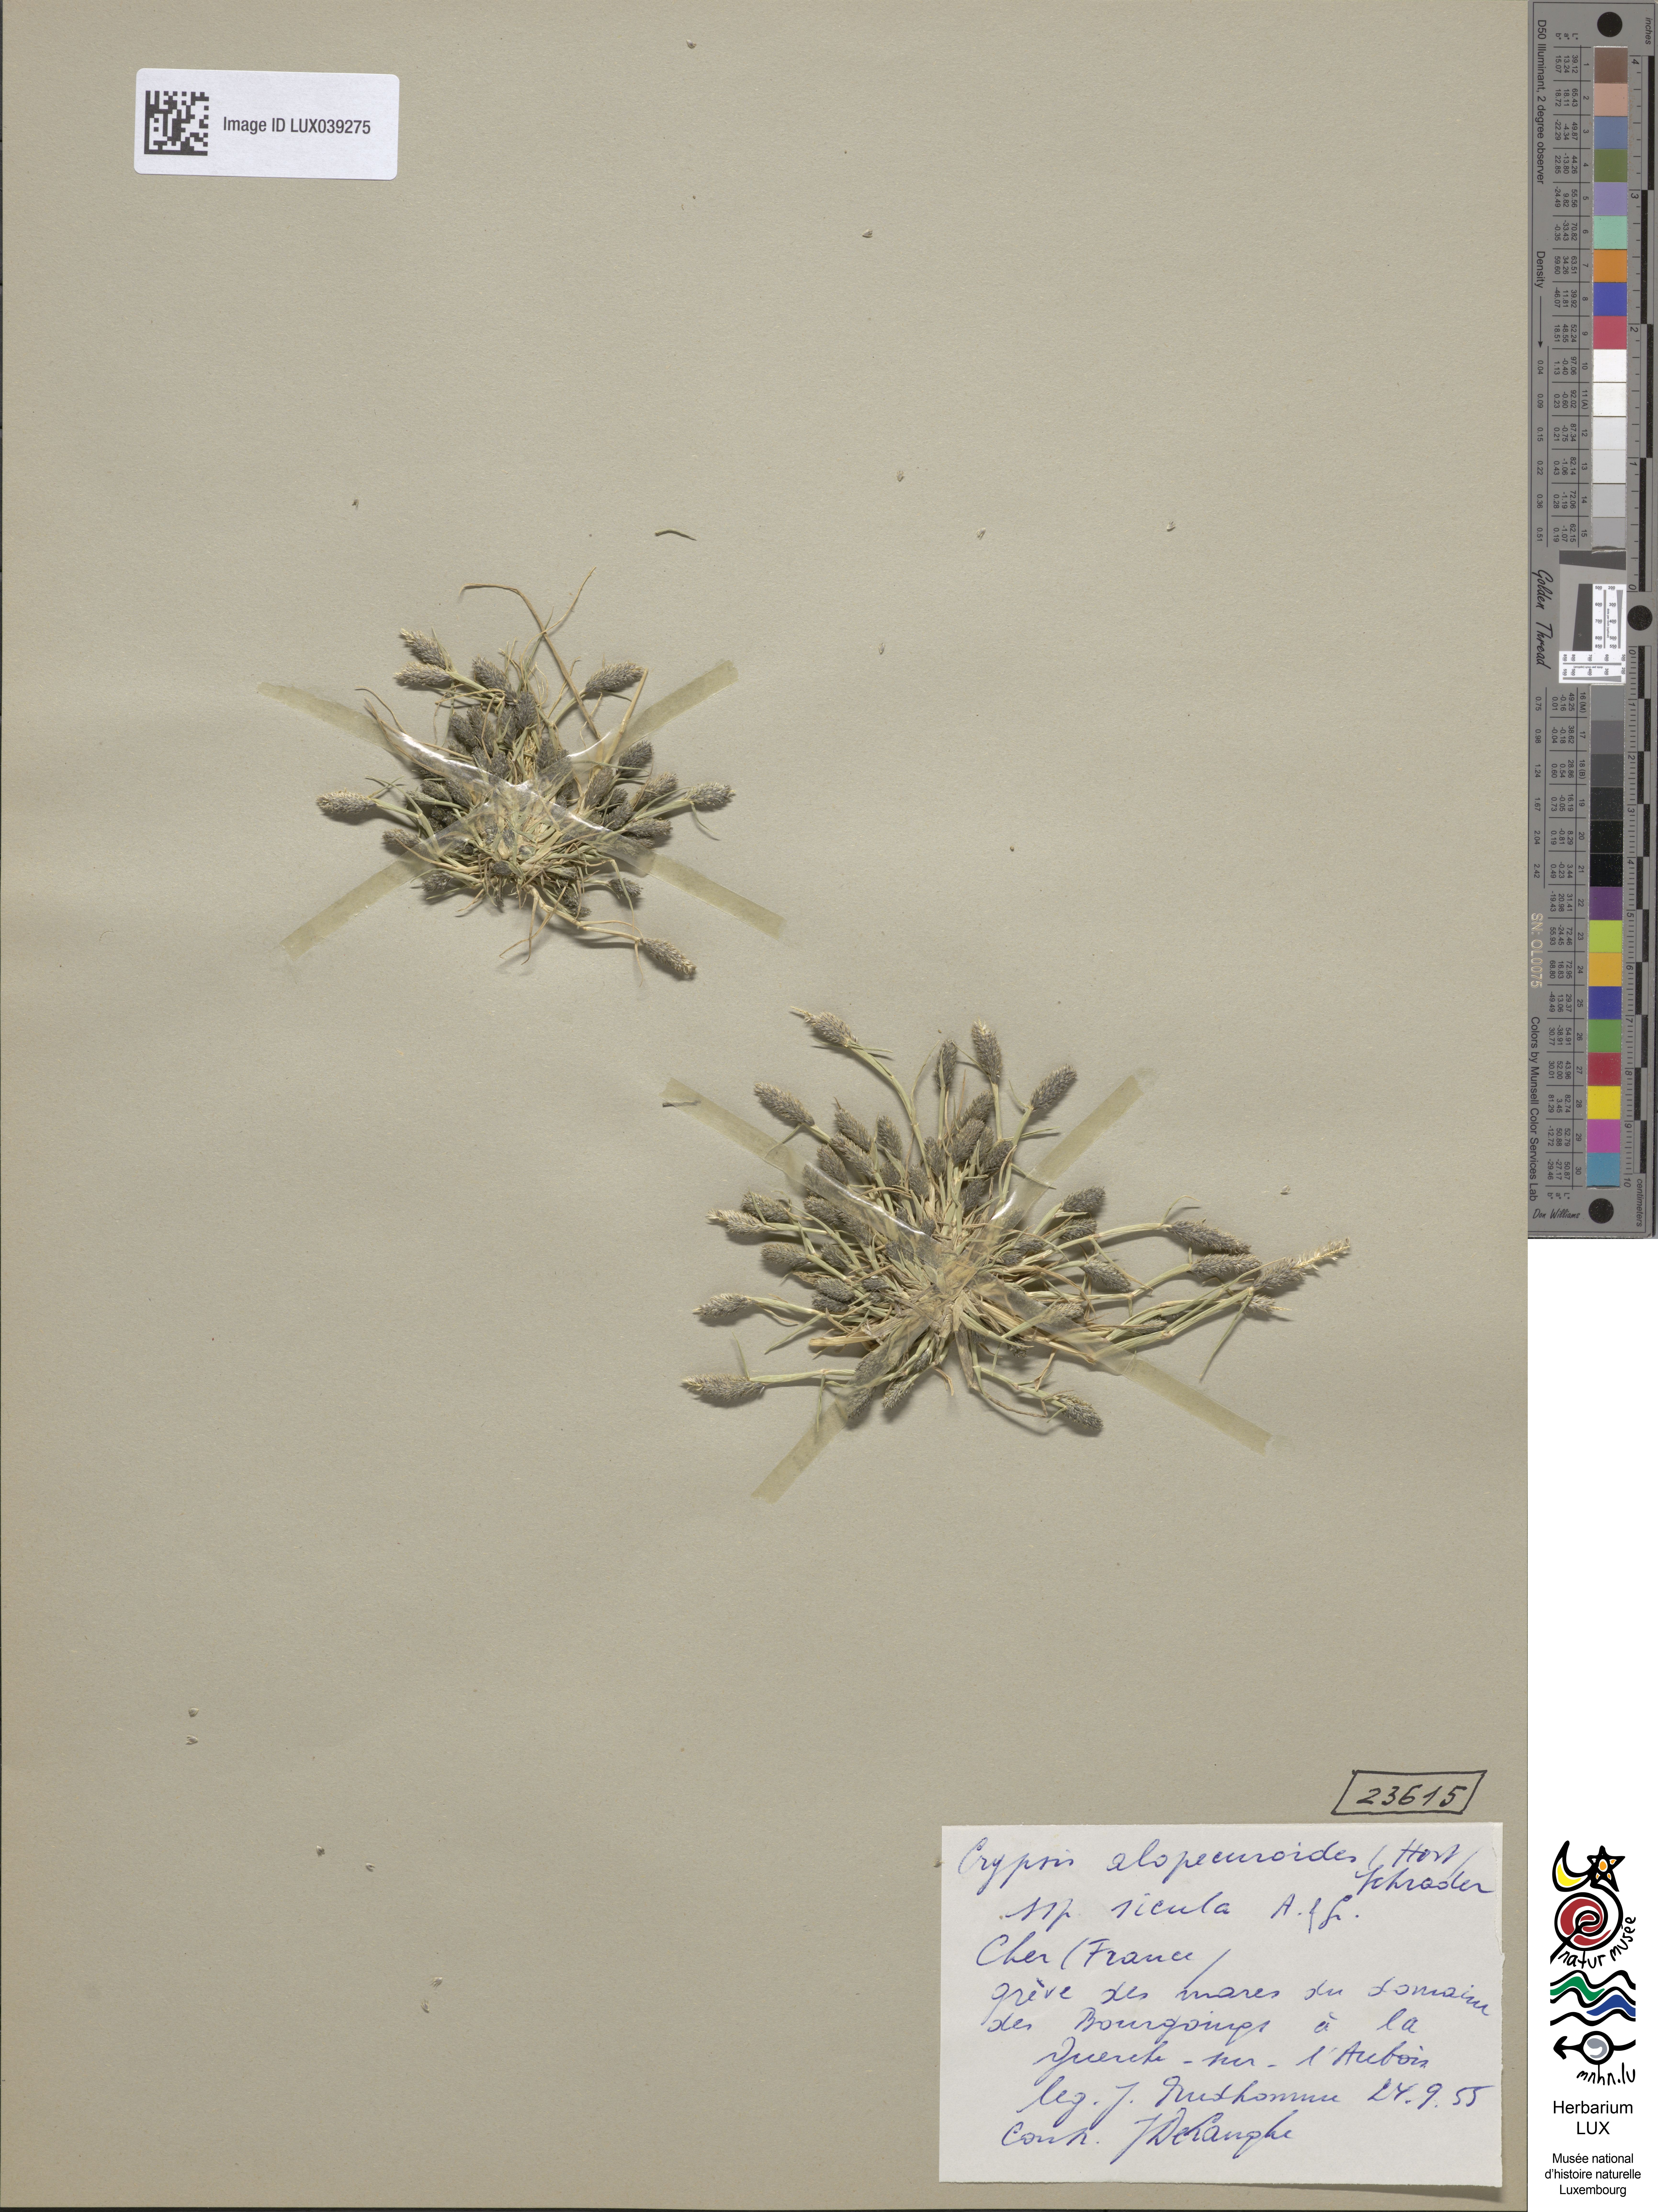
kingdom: Plantae
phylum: Tracheophyta
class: Liliopsida
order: Poales
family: Poaceae
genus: Sporobolus
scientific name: Sporobolus alopecuroides
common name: Foxtail pricklegrass
